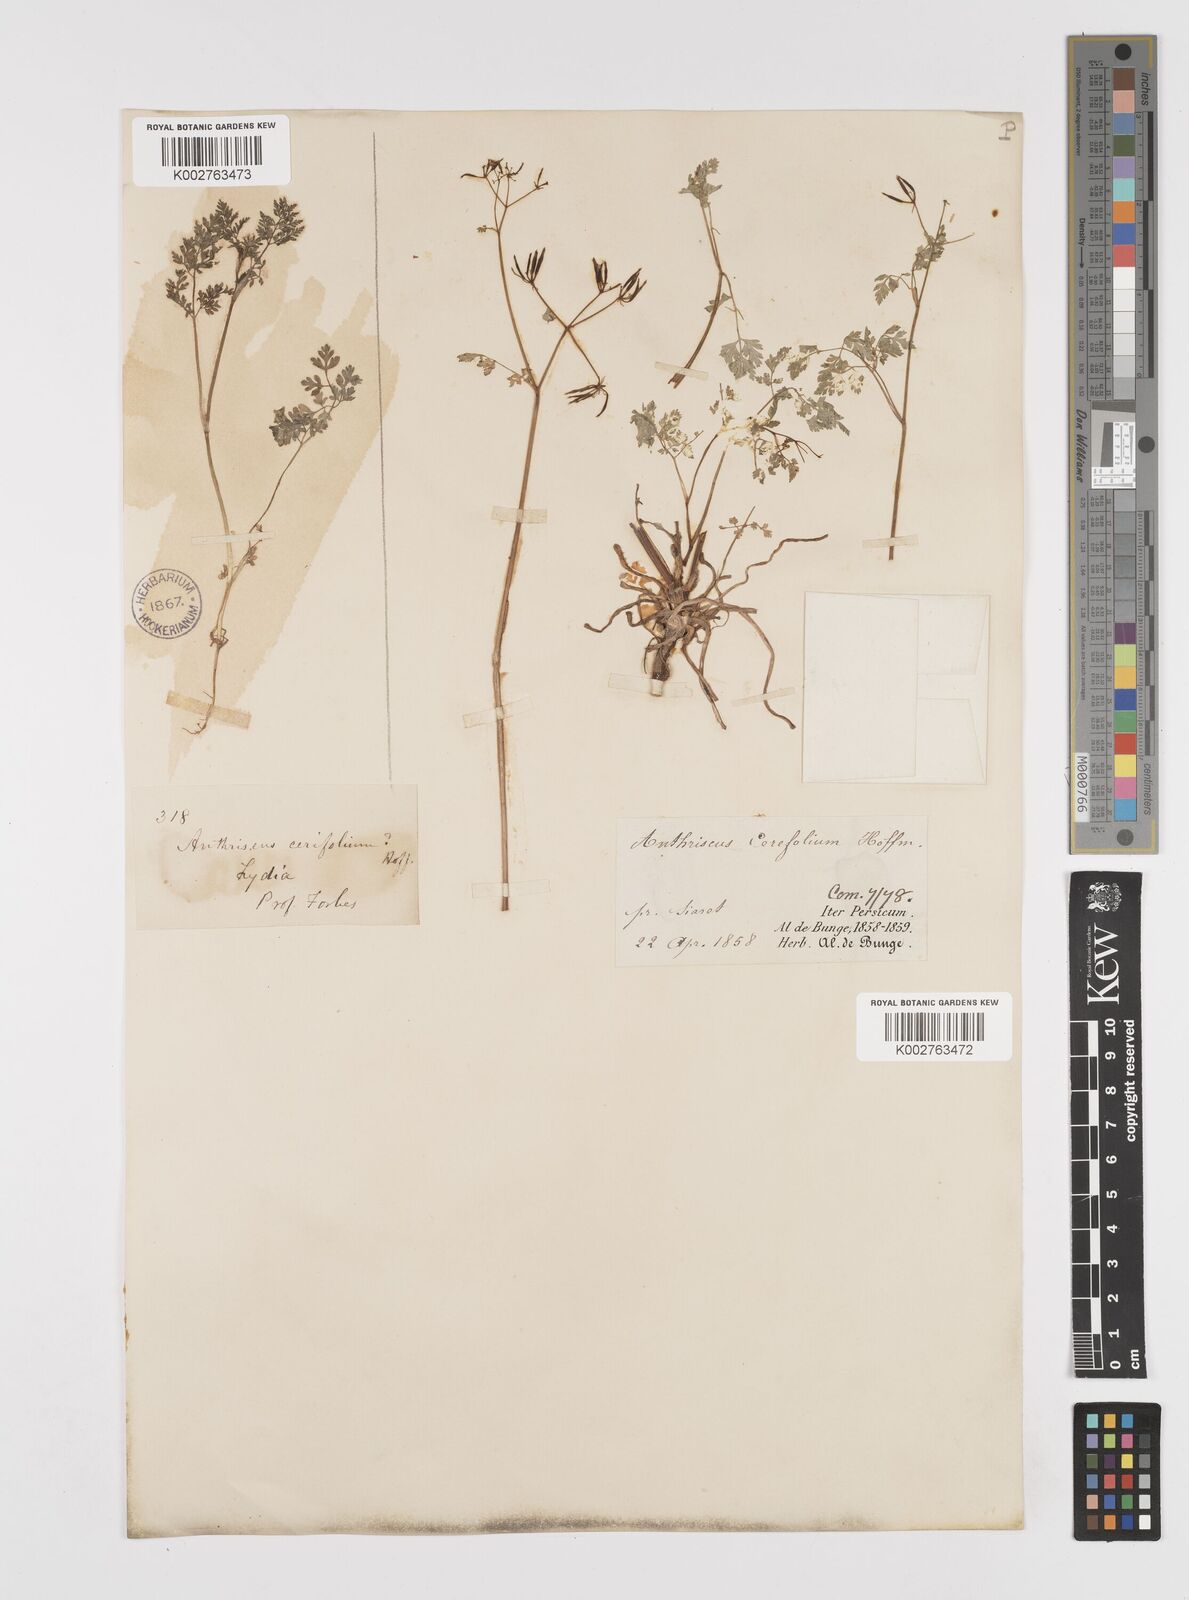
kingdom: Plantae
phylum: Tracheophyta
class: Magnoliopsida
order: Apiales
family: Apiaceae
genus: Anthriscus
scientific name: Anthriscus cerefolium
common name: Garden chervil
